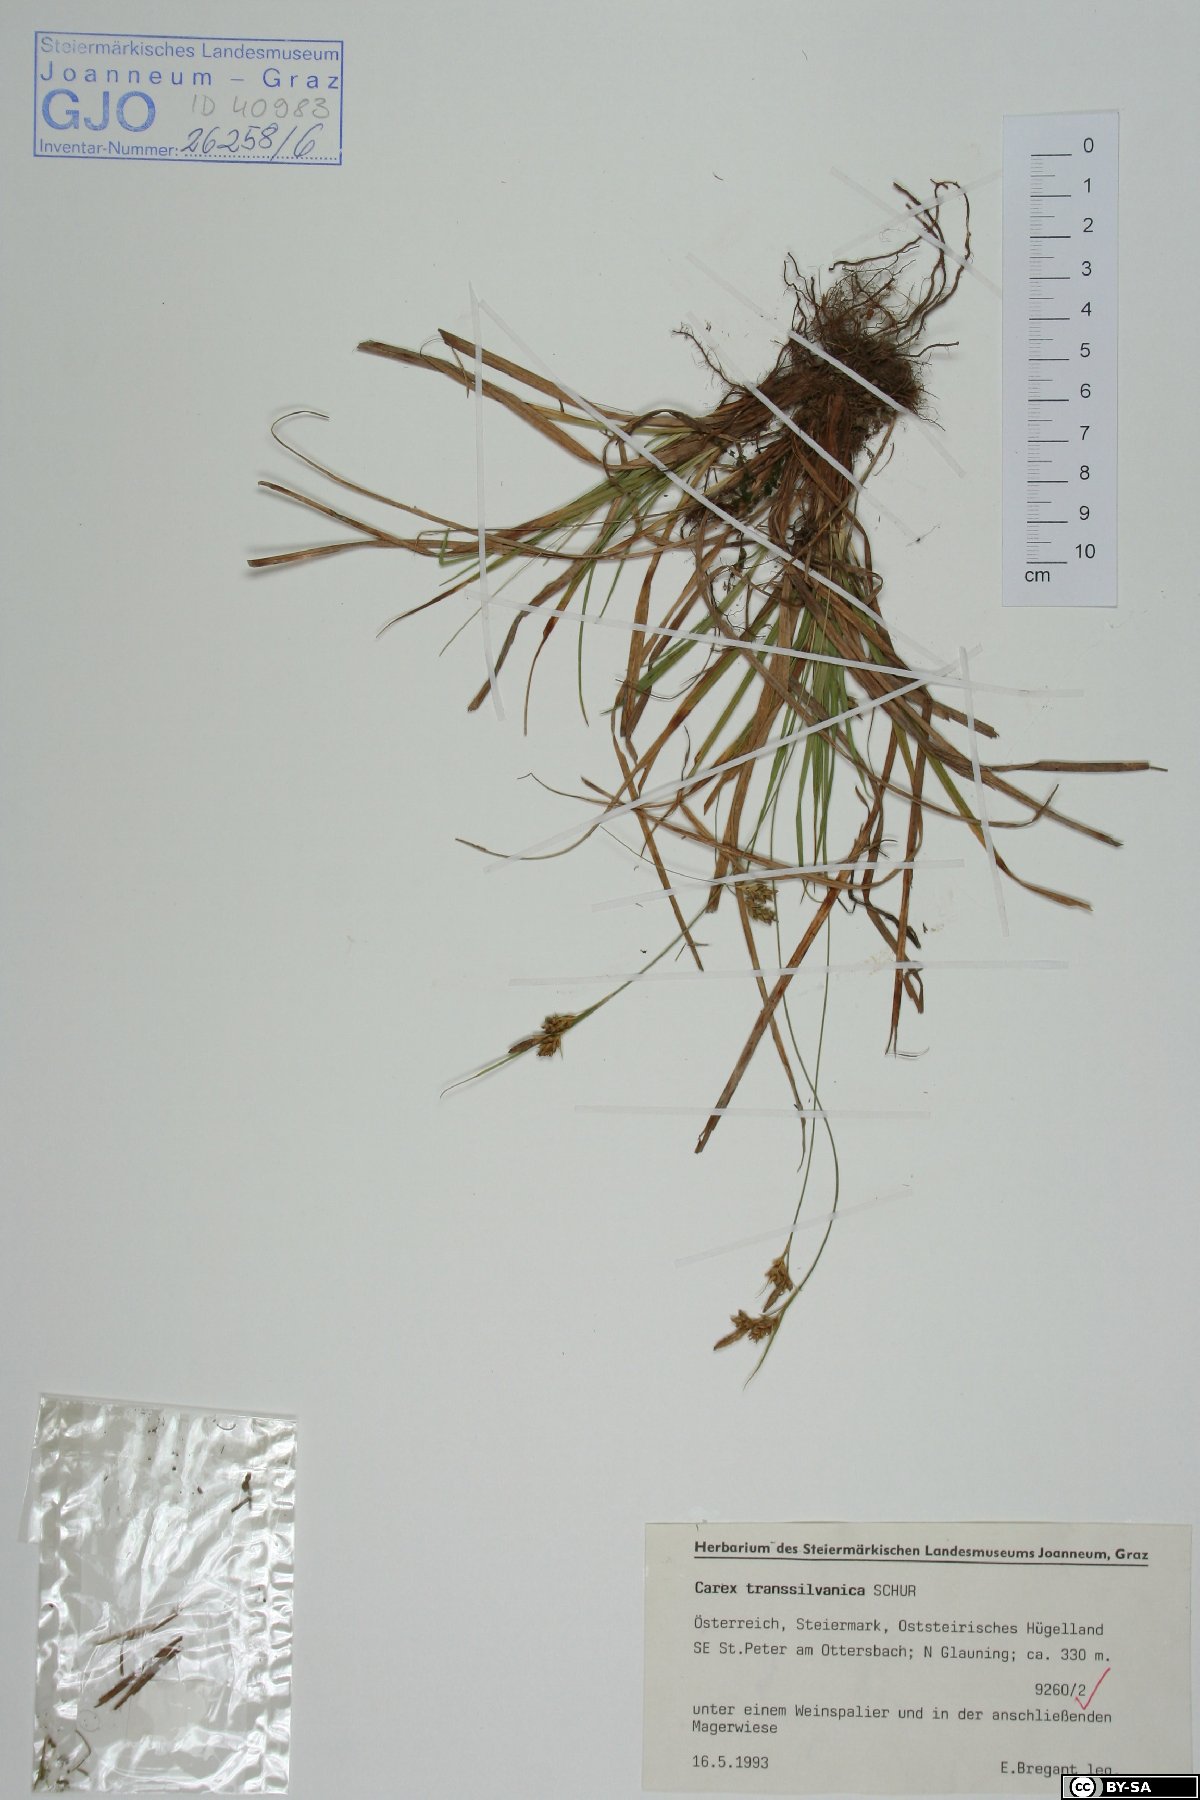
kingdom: Plantae
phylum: Tracheophyta
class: Liliopsida
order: Poales
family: Cyperaceae
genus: Carex
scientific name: Carex depressa
